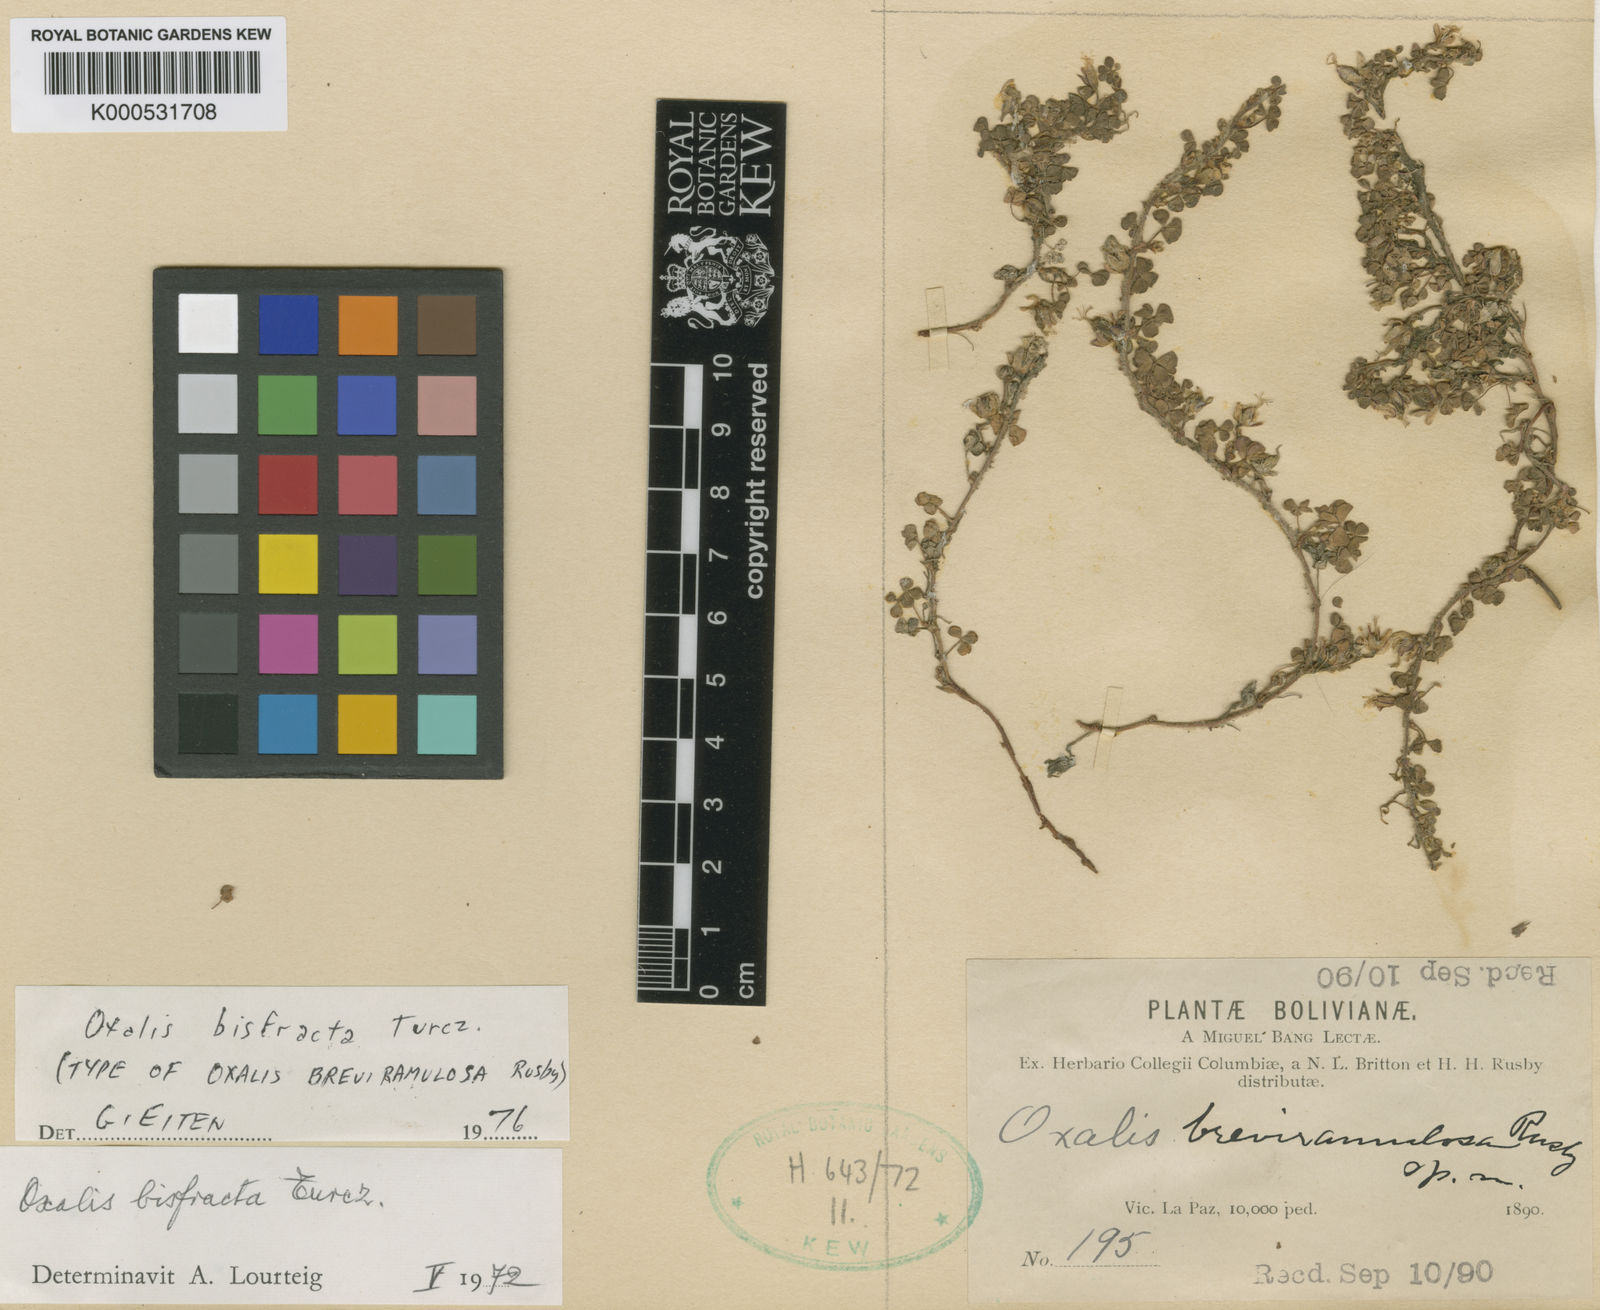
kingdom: Plantae
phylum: Tracheophyta
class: Magnoliopsida
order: Oxalidales
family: Oxalidaceae
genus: Oxalis
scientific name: Oxalis bisfracta
